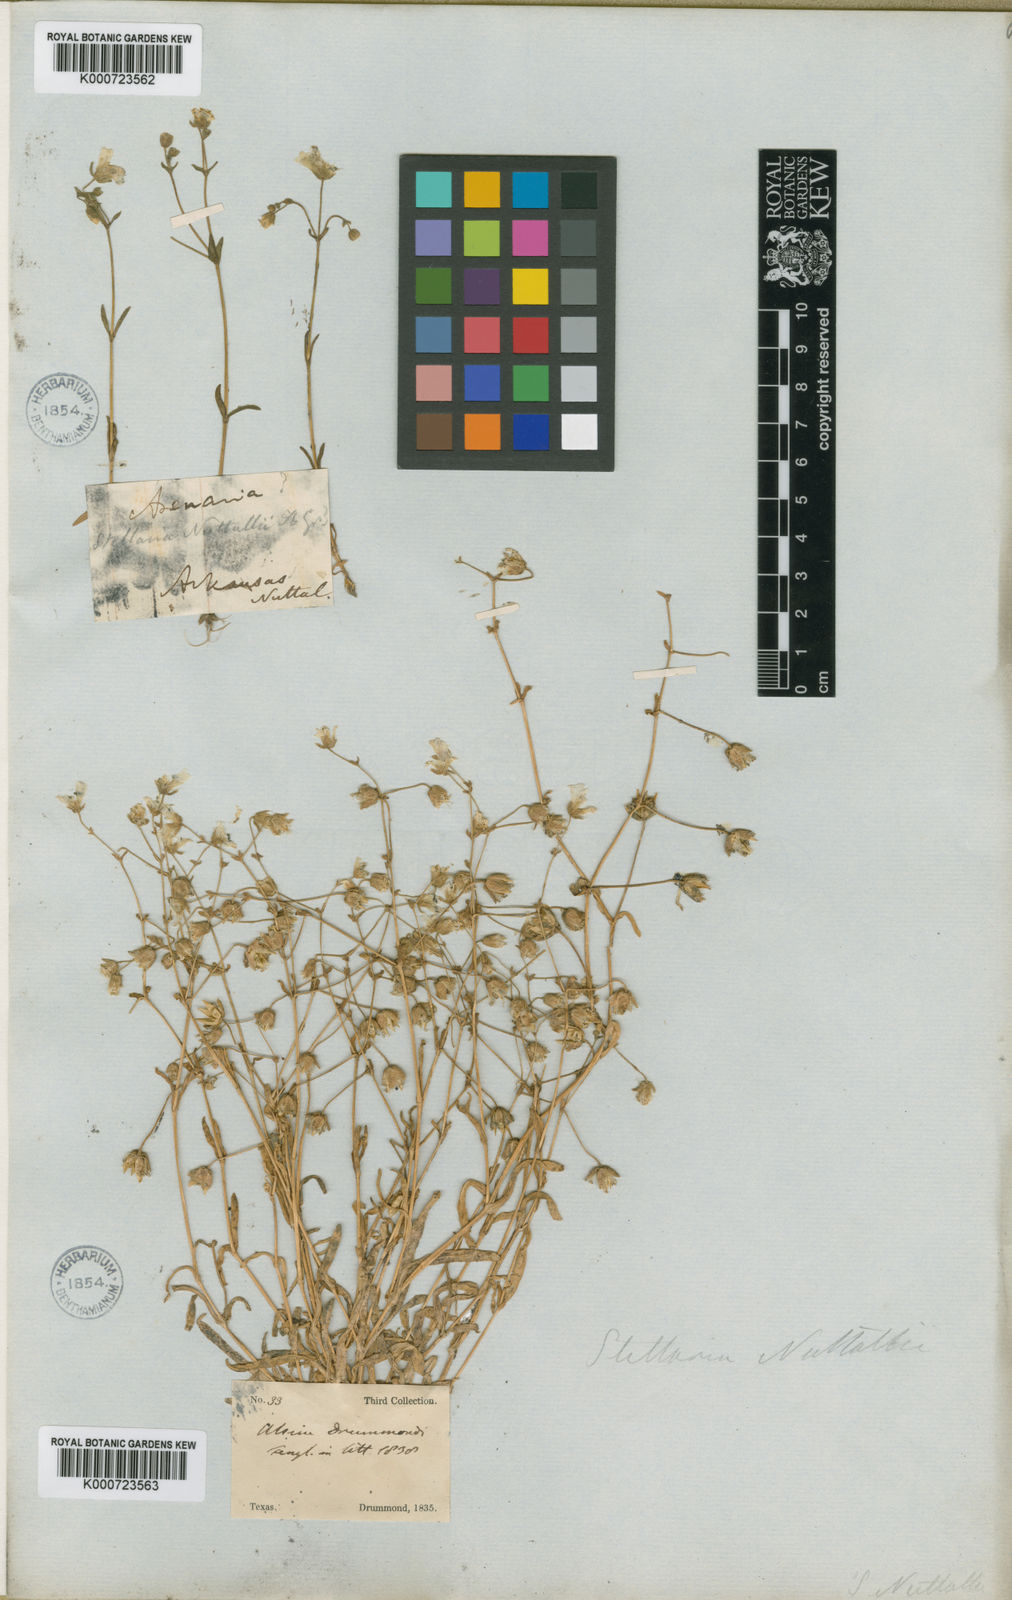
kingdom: Plantae
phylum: Tracheophyta
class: Magnoliopsida
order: Caryophyllales
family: Caryophyllaceae
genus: Geocarpon
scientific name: Geocarpon nuttallii
